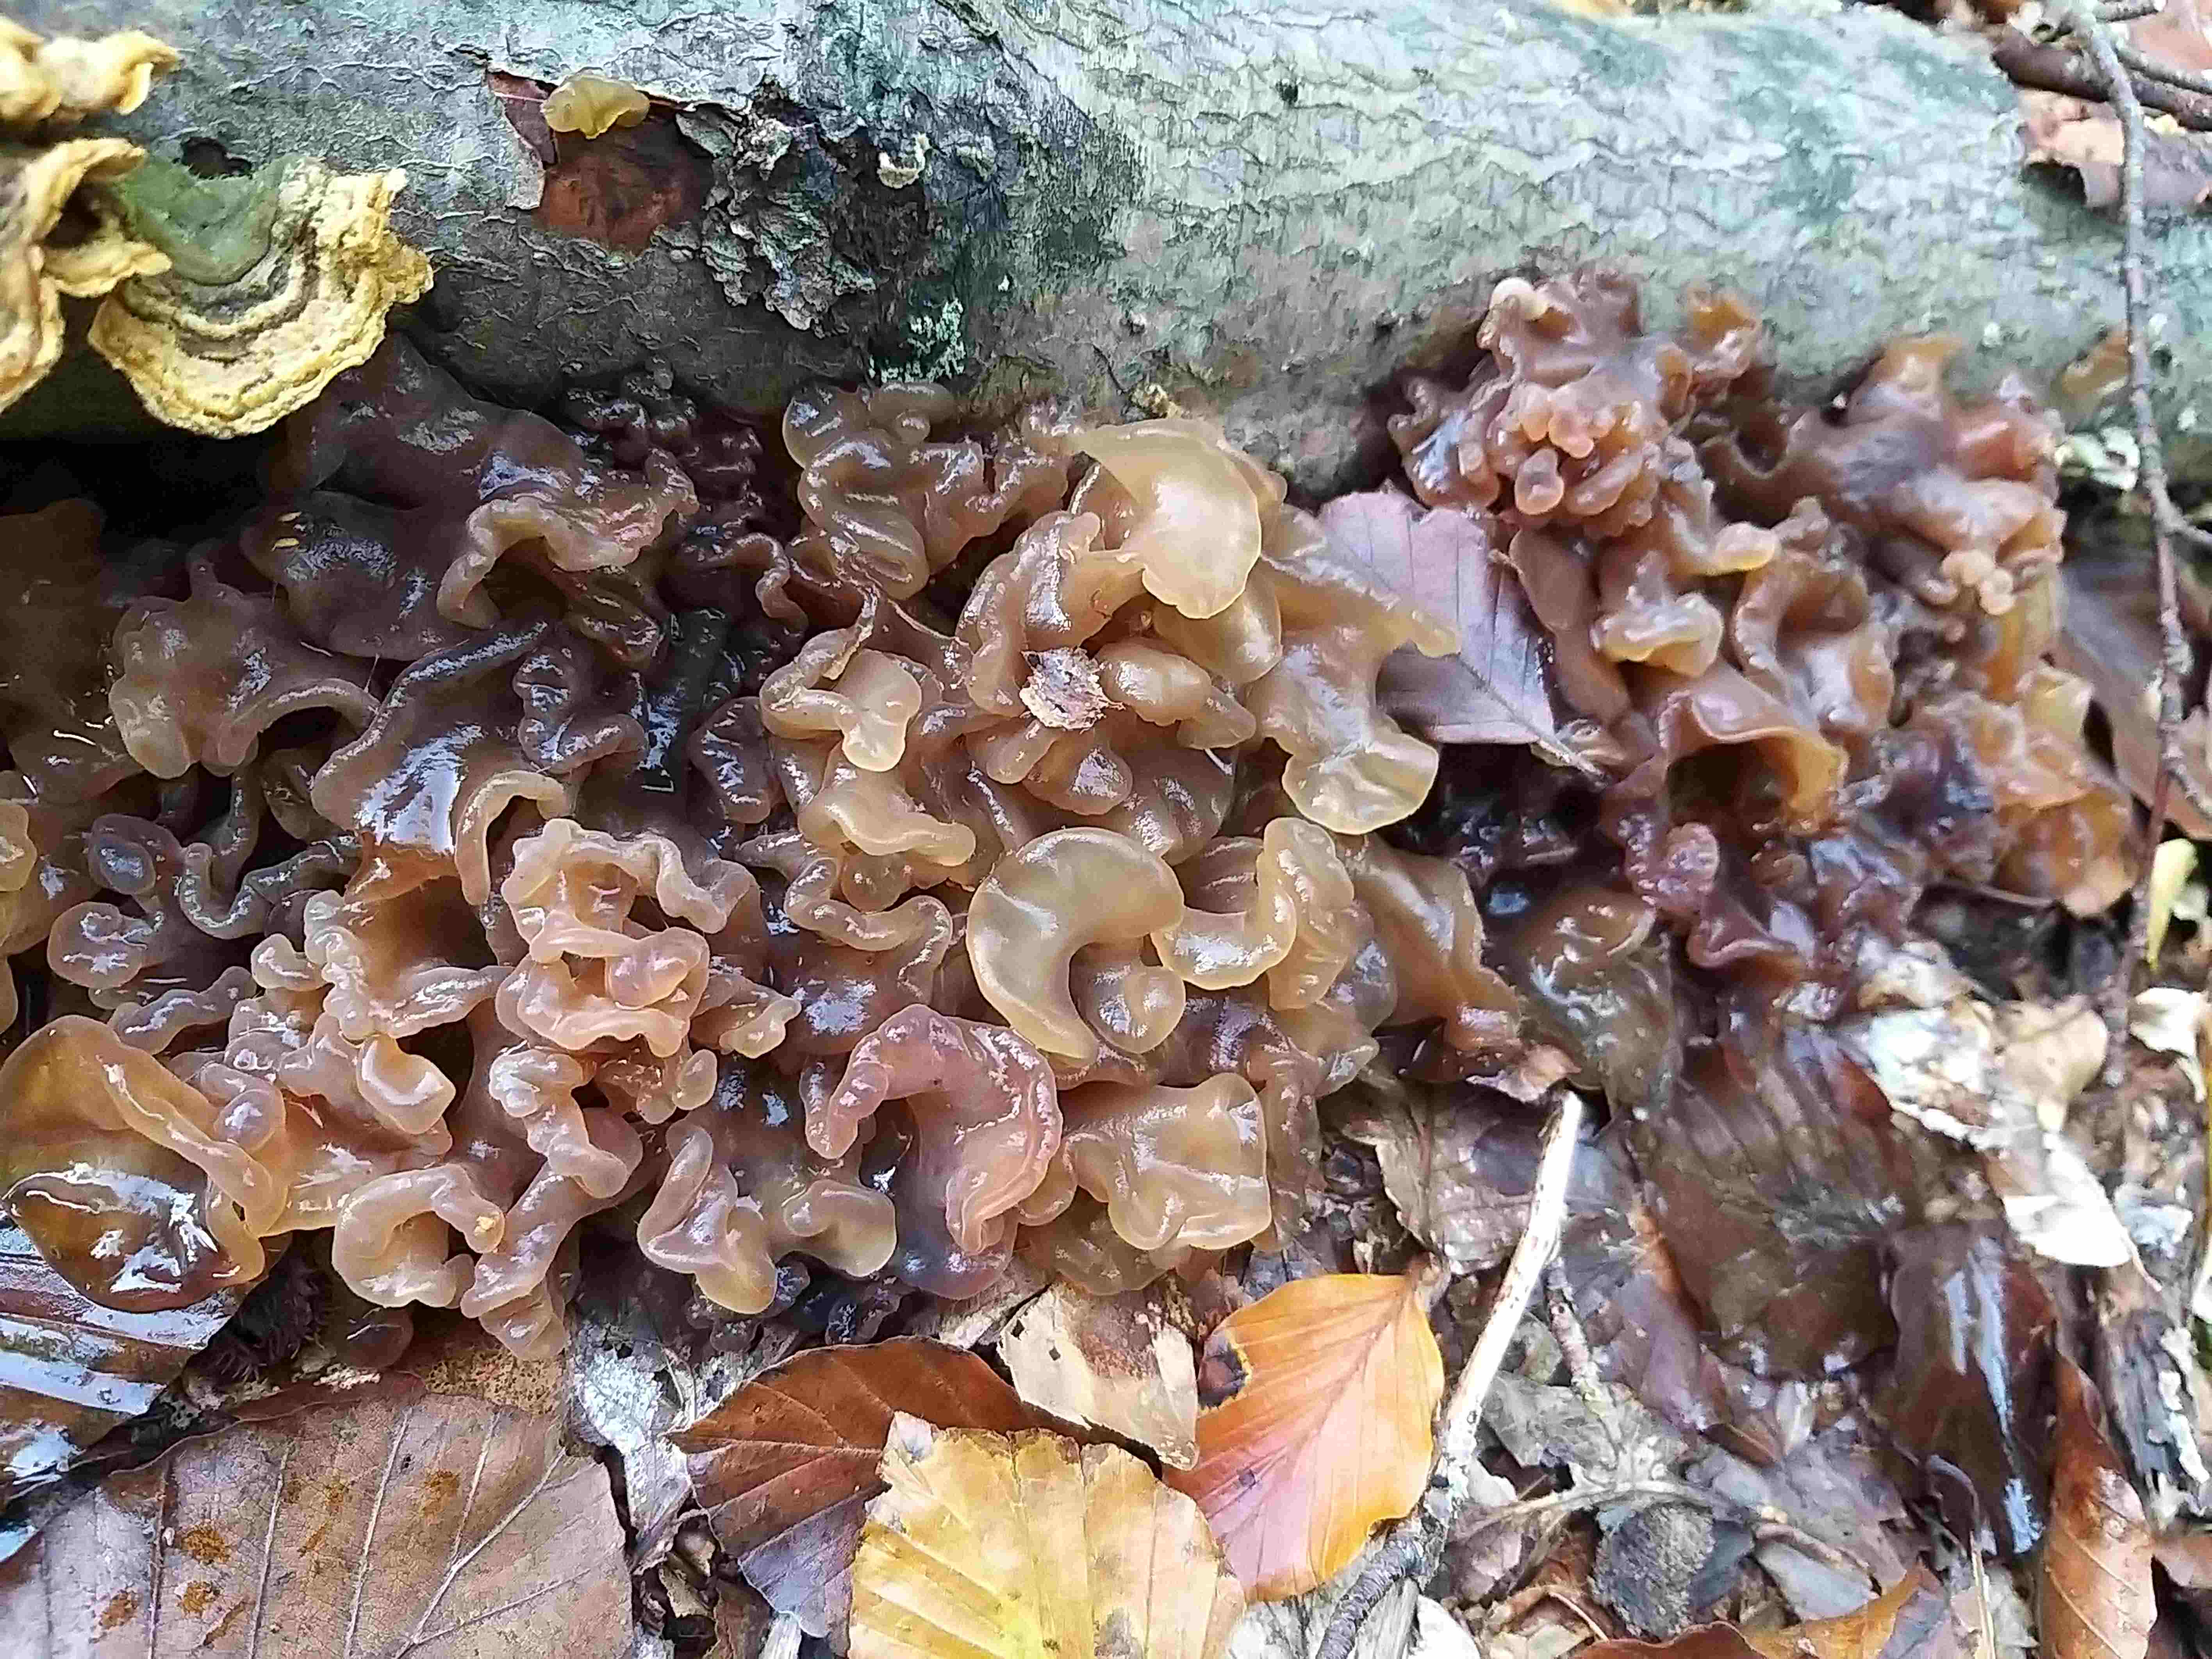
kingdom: Fungi
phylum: Basidiomycota
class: Tremellomycetes
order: Tremellales
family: Tremellaceae
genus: Phaeotremella
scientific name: Phaeotremella frondosa
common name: kæmpe-bævresvamp
